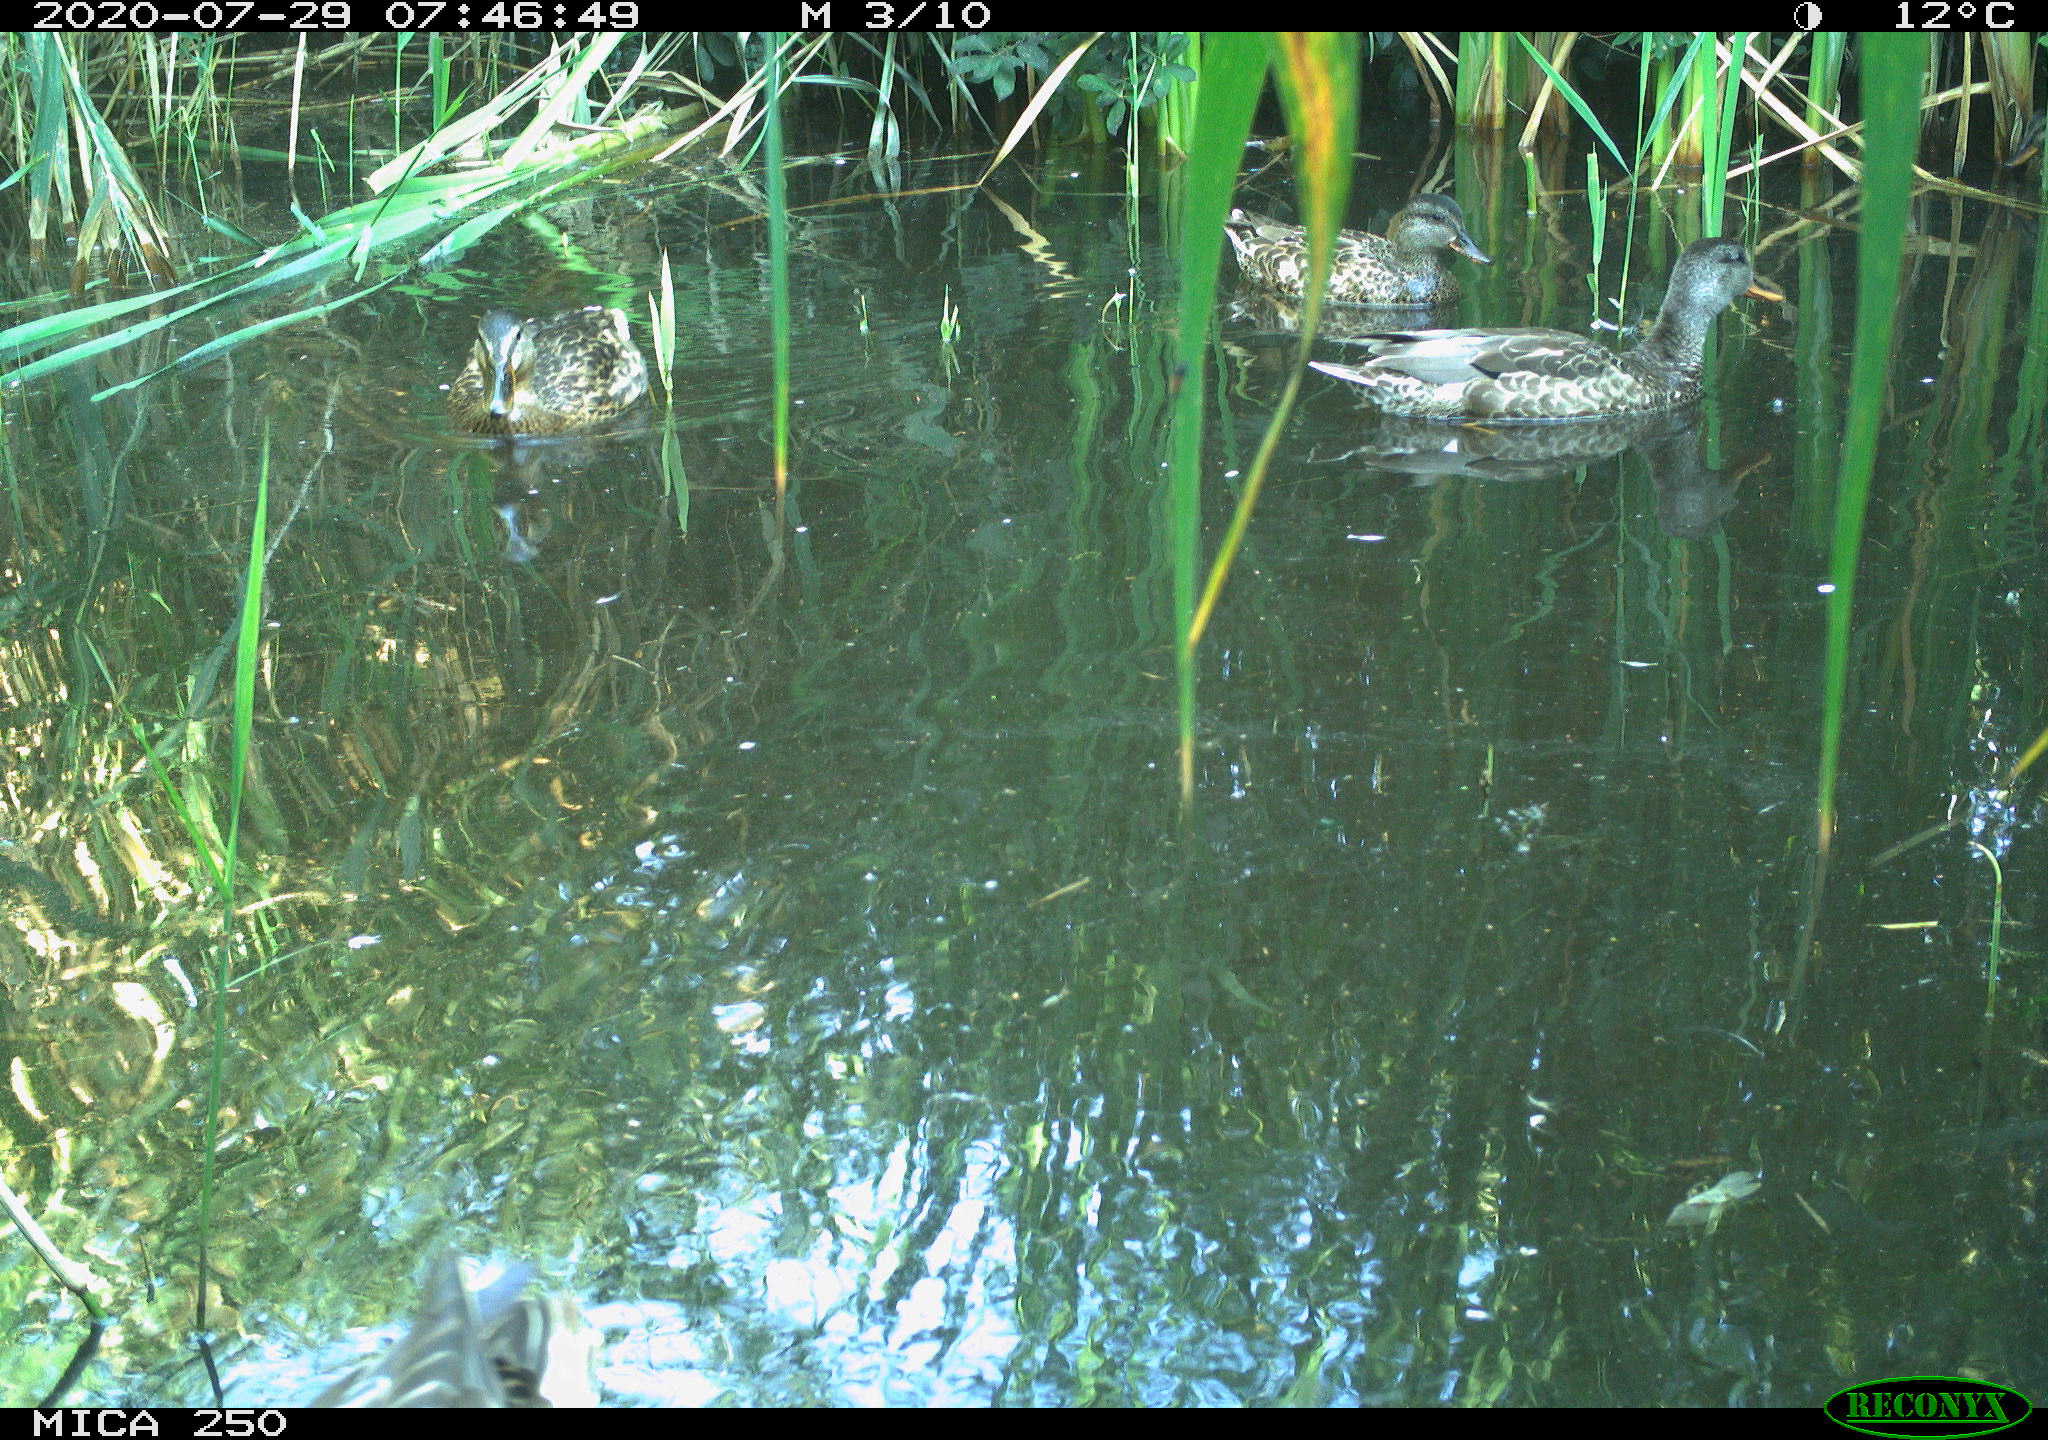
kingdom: Animalia
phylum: Chordata
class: Aves
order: Anseriformes
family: Anatidae
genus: Anas
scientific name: Anas platyrhynchos
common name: Mallard
